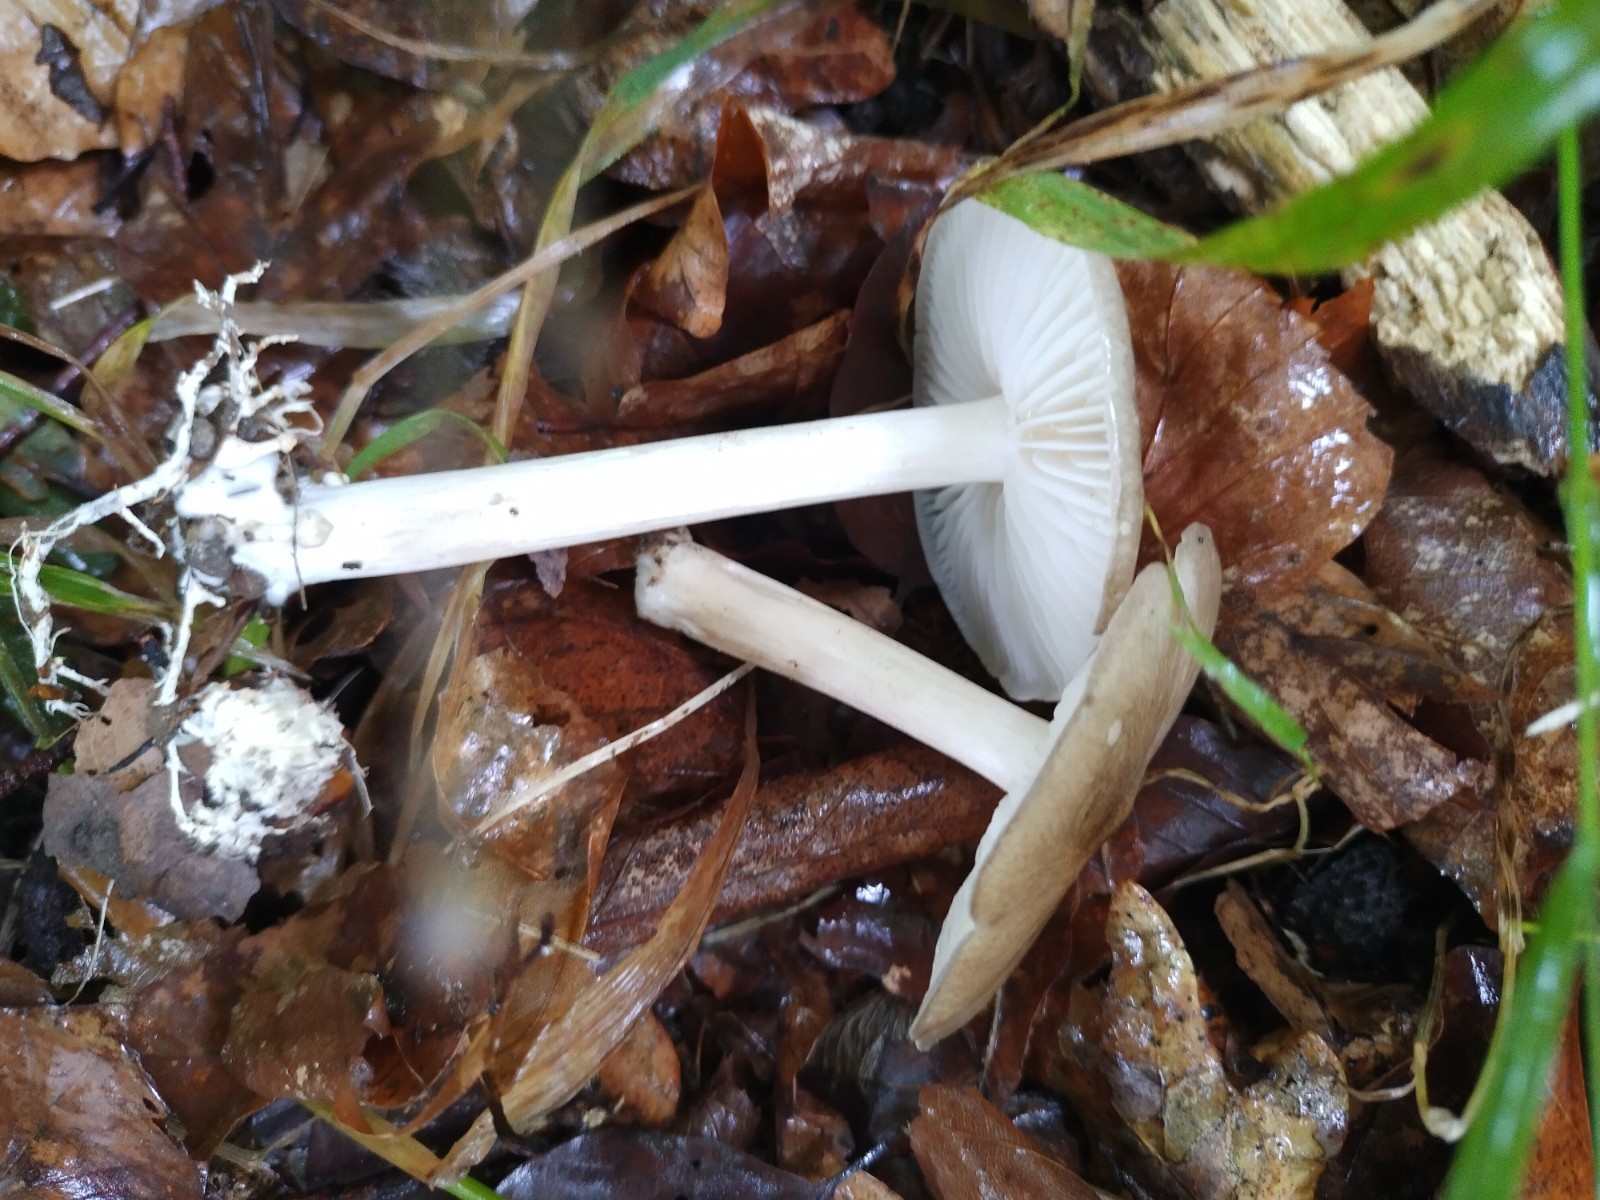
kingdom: Fungi
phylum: Basidiomycota
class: Agaricomycetes
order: Agaricales
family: Tricholomataceae
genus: Megacollybia
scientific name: Megacollybia platyphylla
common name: bredbladet væbnerhat
